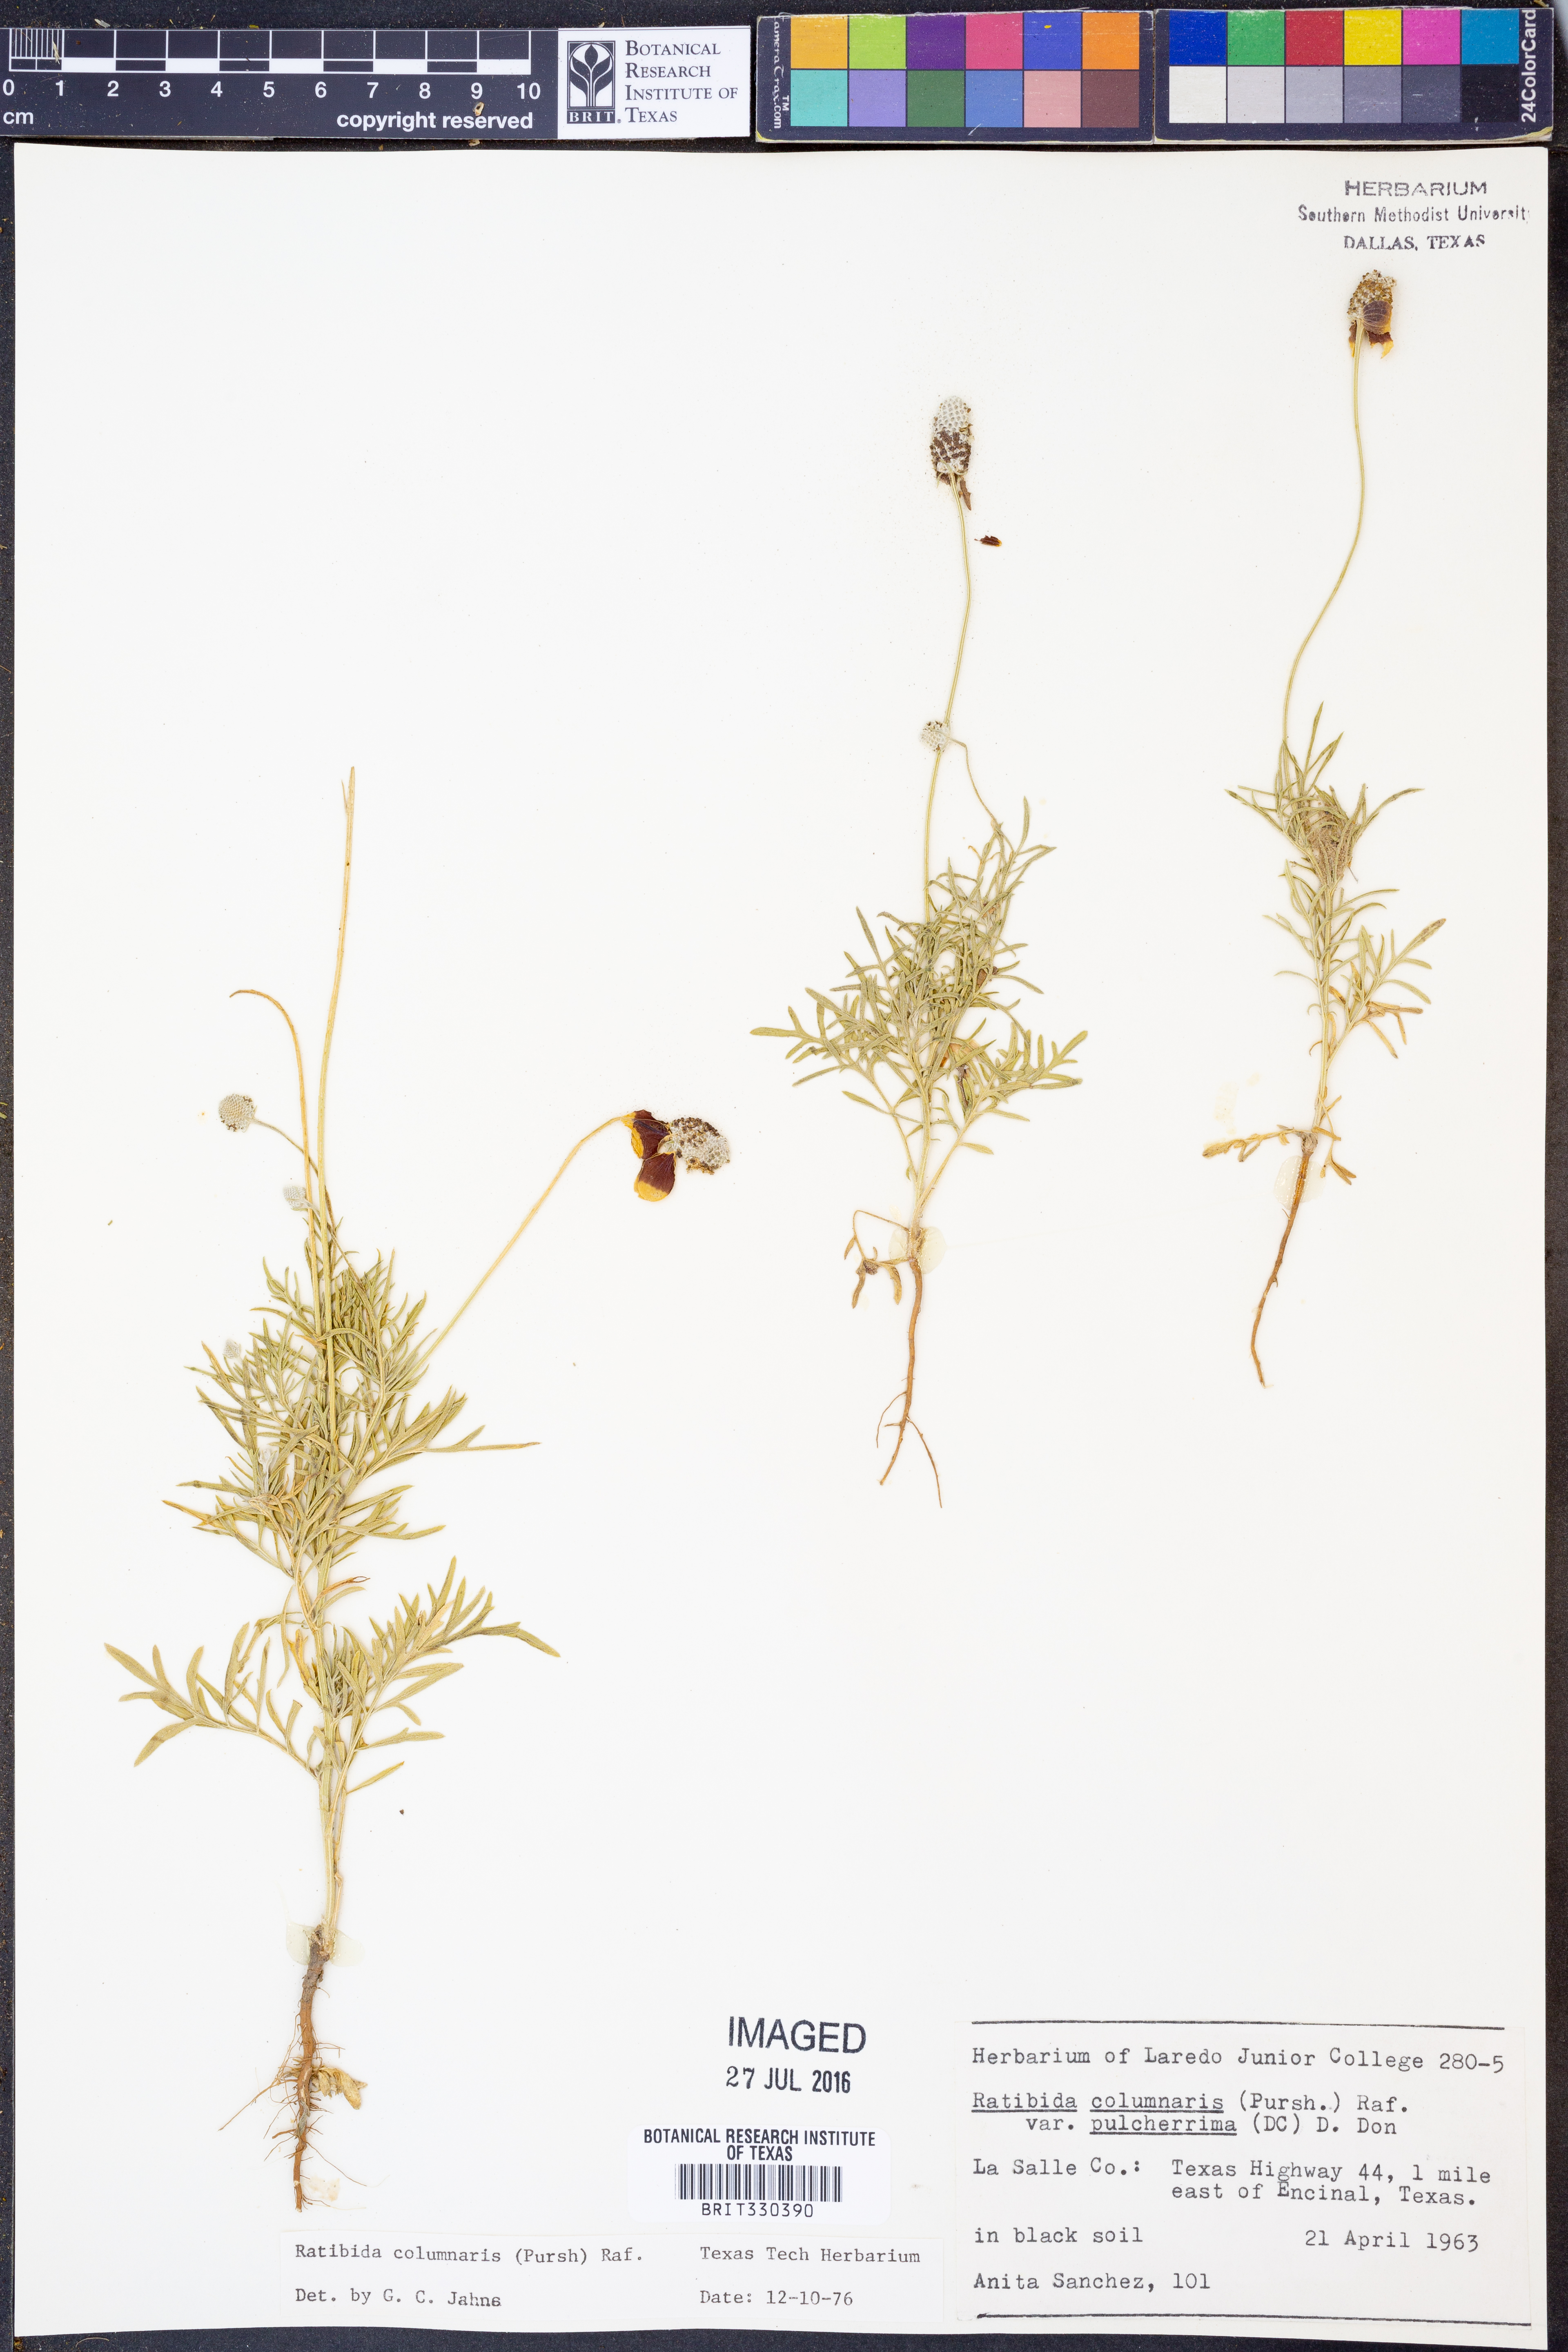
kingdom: Plantae
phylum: Tracheophyta
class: Magnoliopsida
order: Asterales
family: Asteraceae
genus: Ratibida
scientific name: Ratibida columnifera
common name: Prairie coneflower
